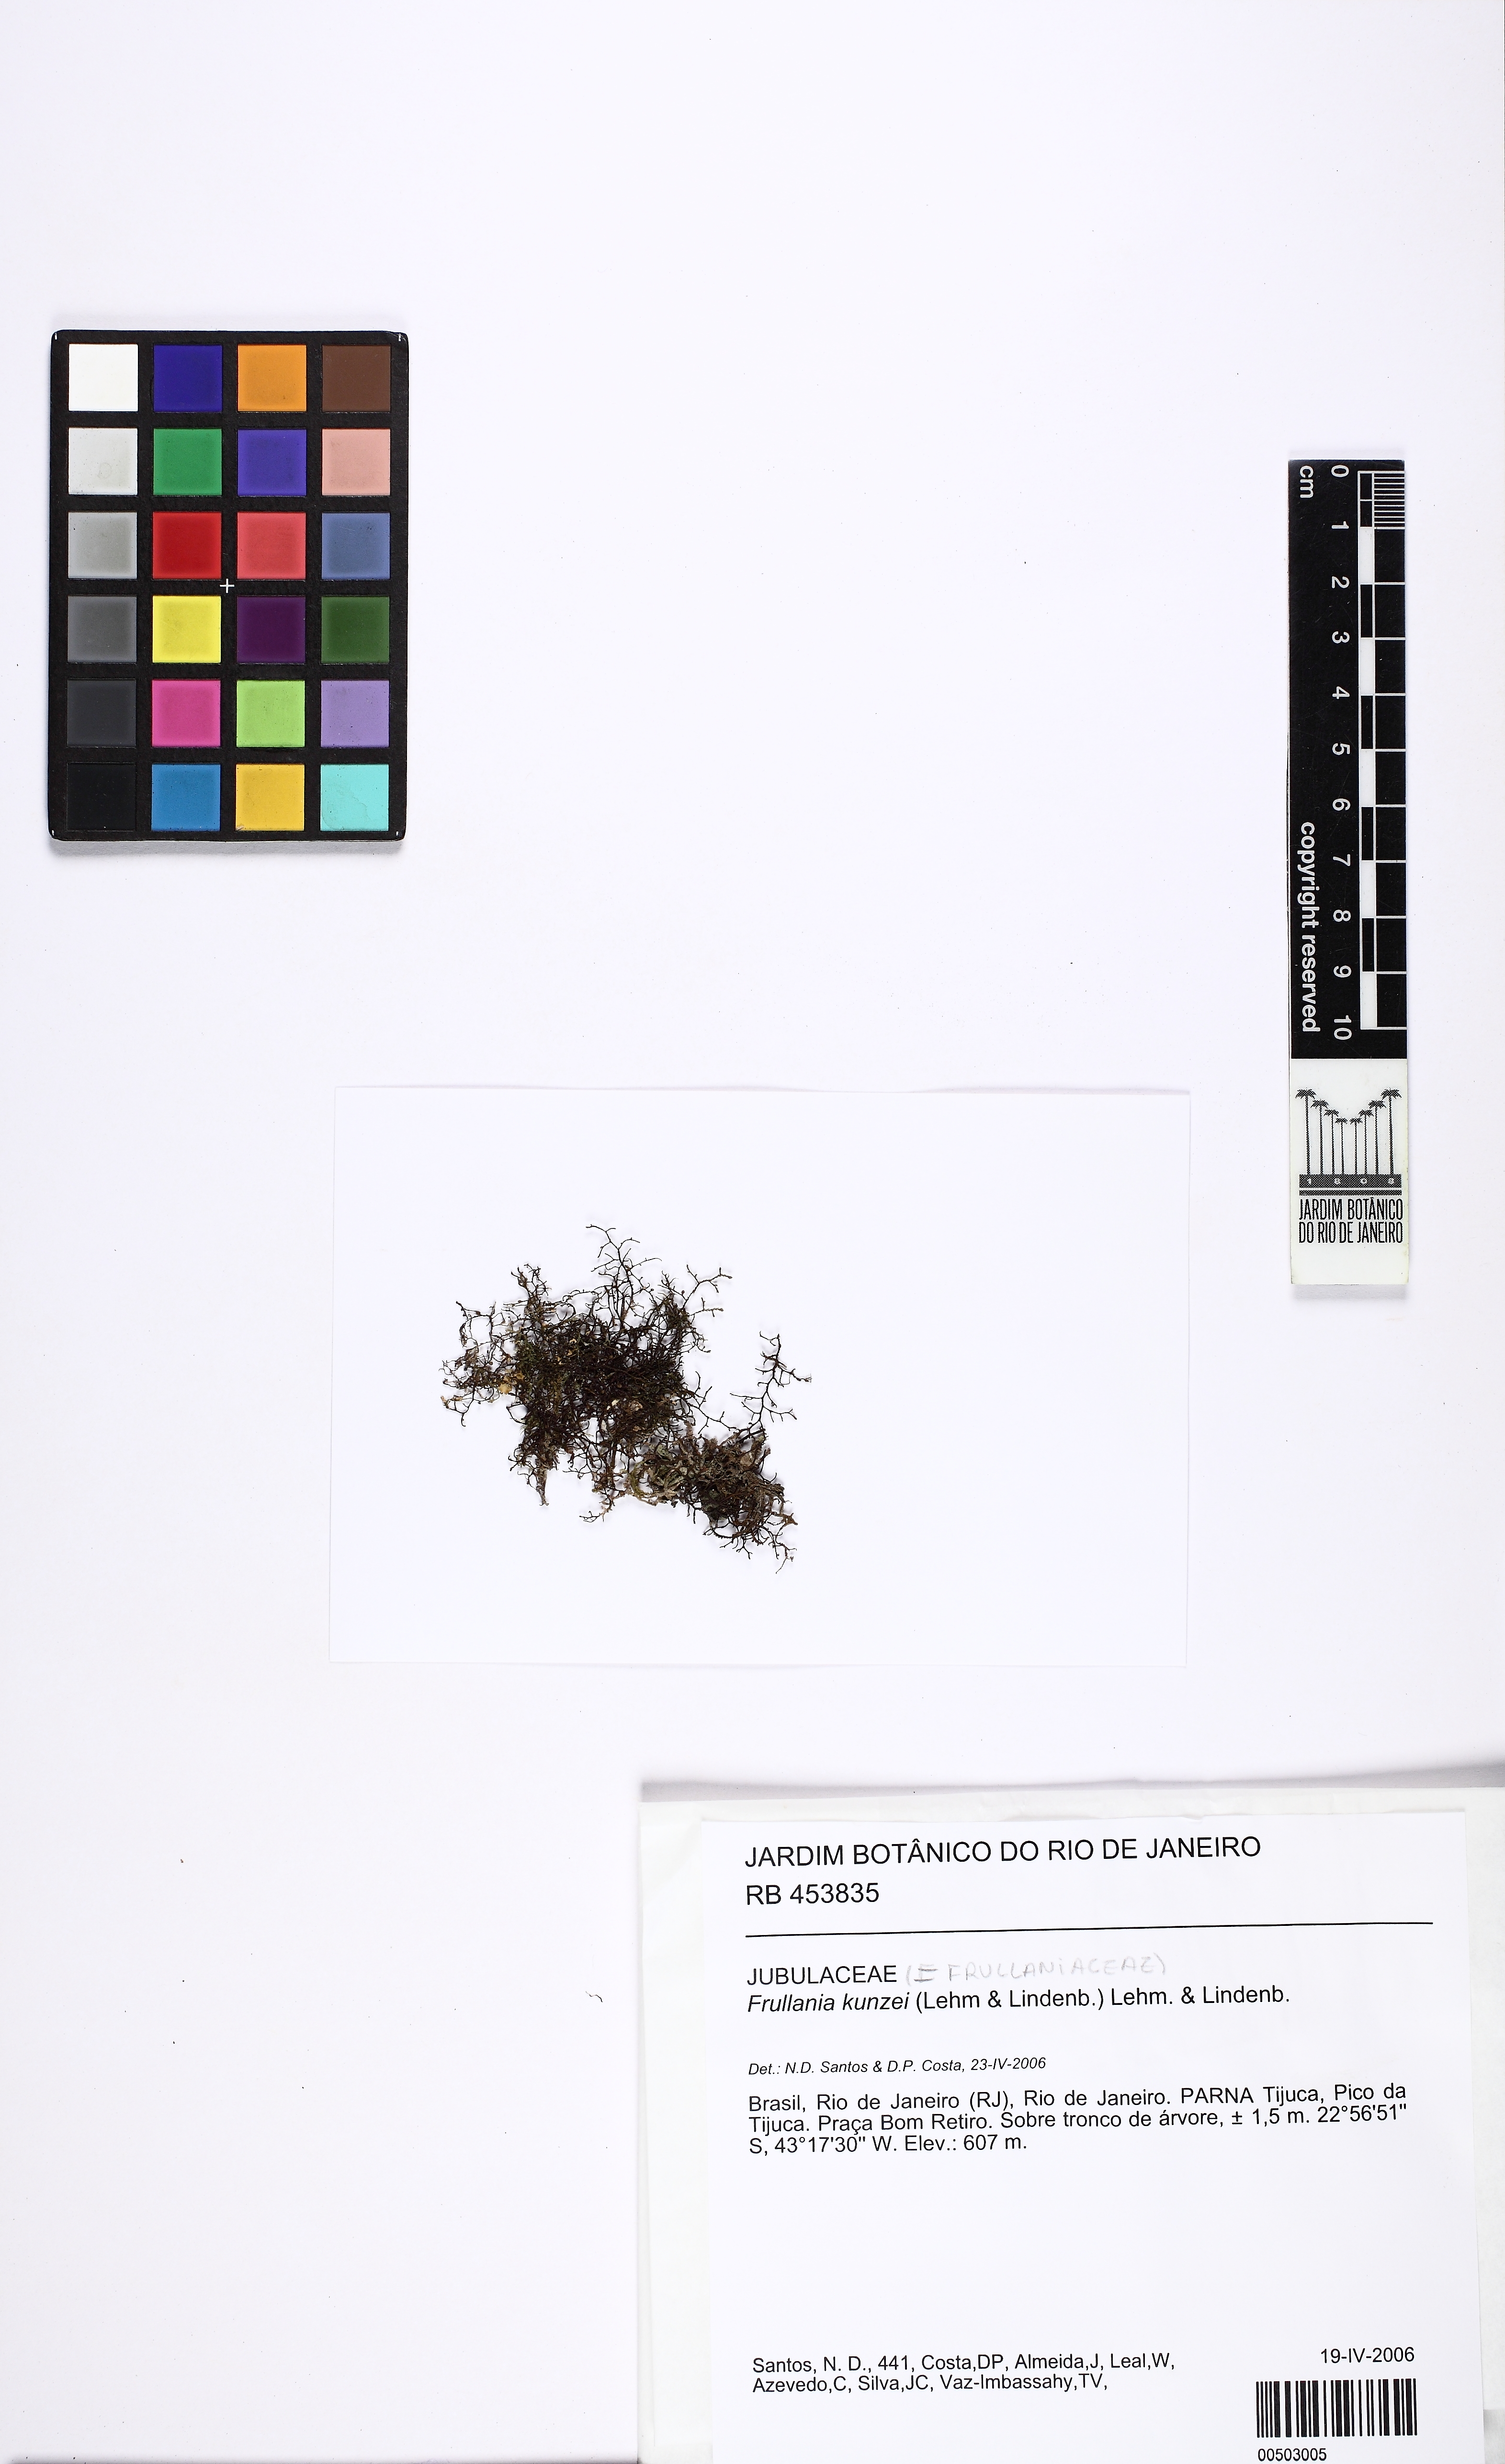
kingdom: Plantae
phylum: Marchantiophyta
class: Jungermanniopsida
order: Porellales
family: Frullaniaceae
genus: Frullania
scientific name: Frullania kunzei
